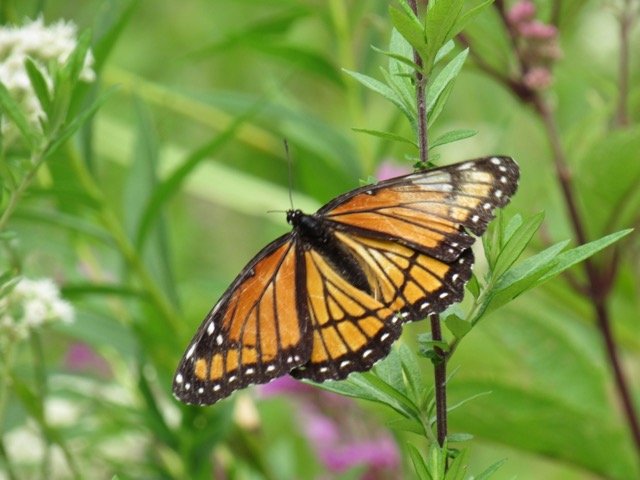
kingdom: Animalia
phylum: Arthropoda
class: Insecta
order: Lepidoptera
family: Nymphalidae
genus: Limenitis
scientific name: Limenitis archippus
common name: Viceroy
